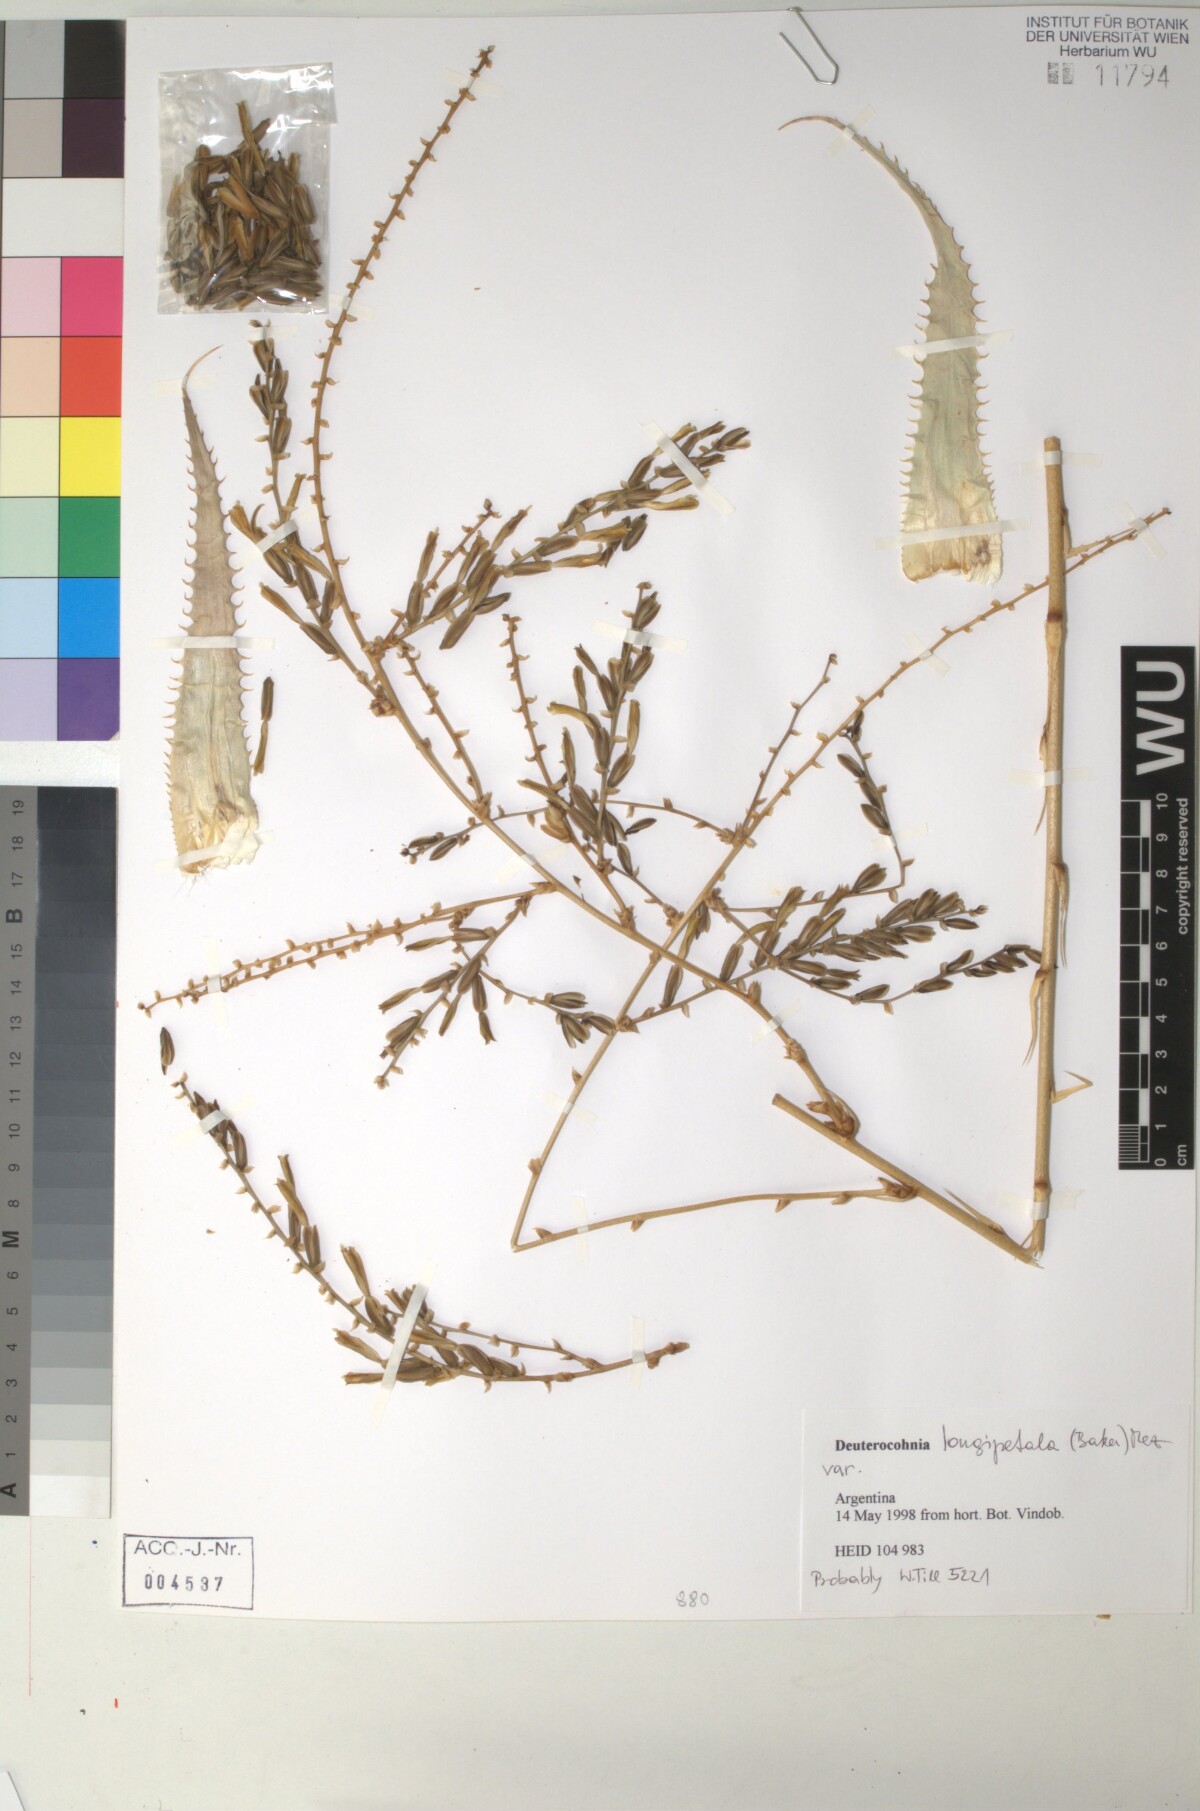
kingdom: Plantae
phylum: Tracheophyta
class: Liliopsida
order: Poales
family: Bromeliaceae
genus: Deuterocohnia
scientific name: Deuterocohnia longipetala
